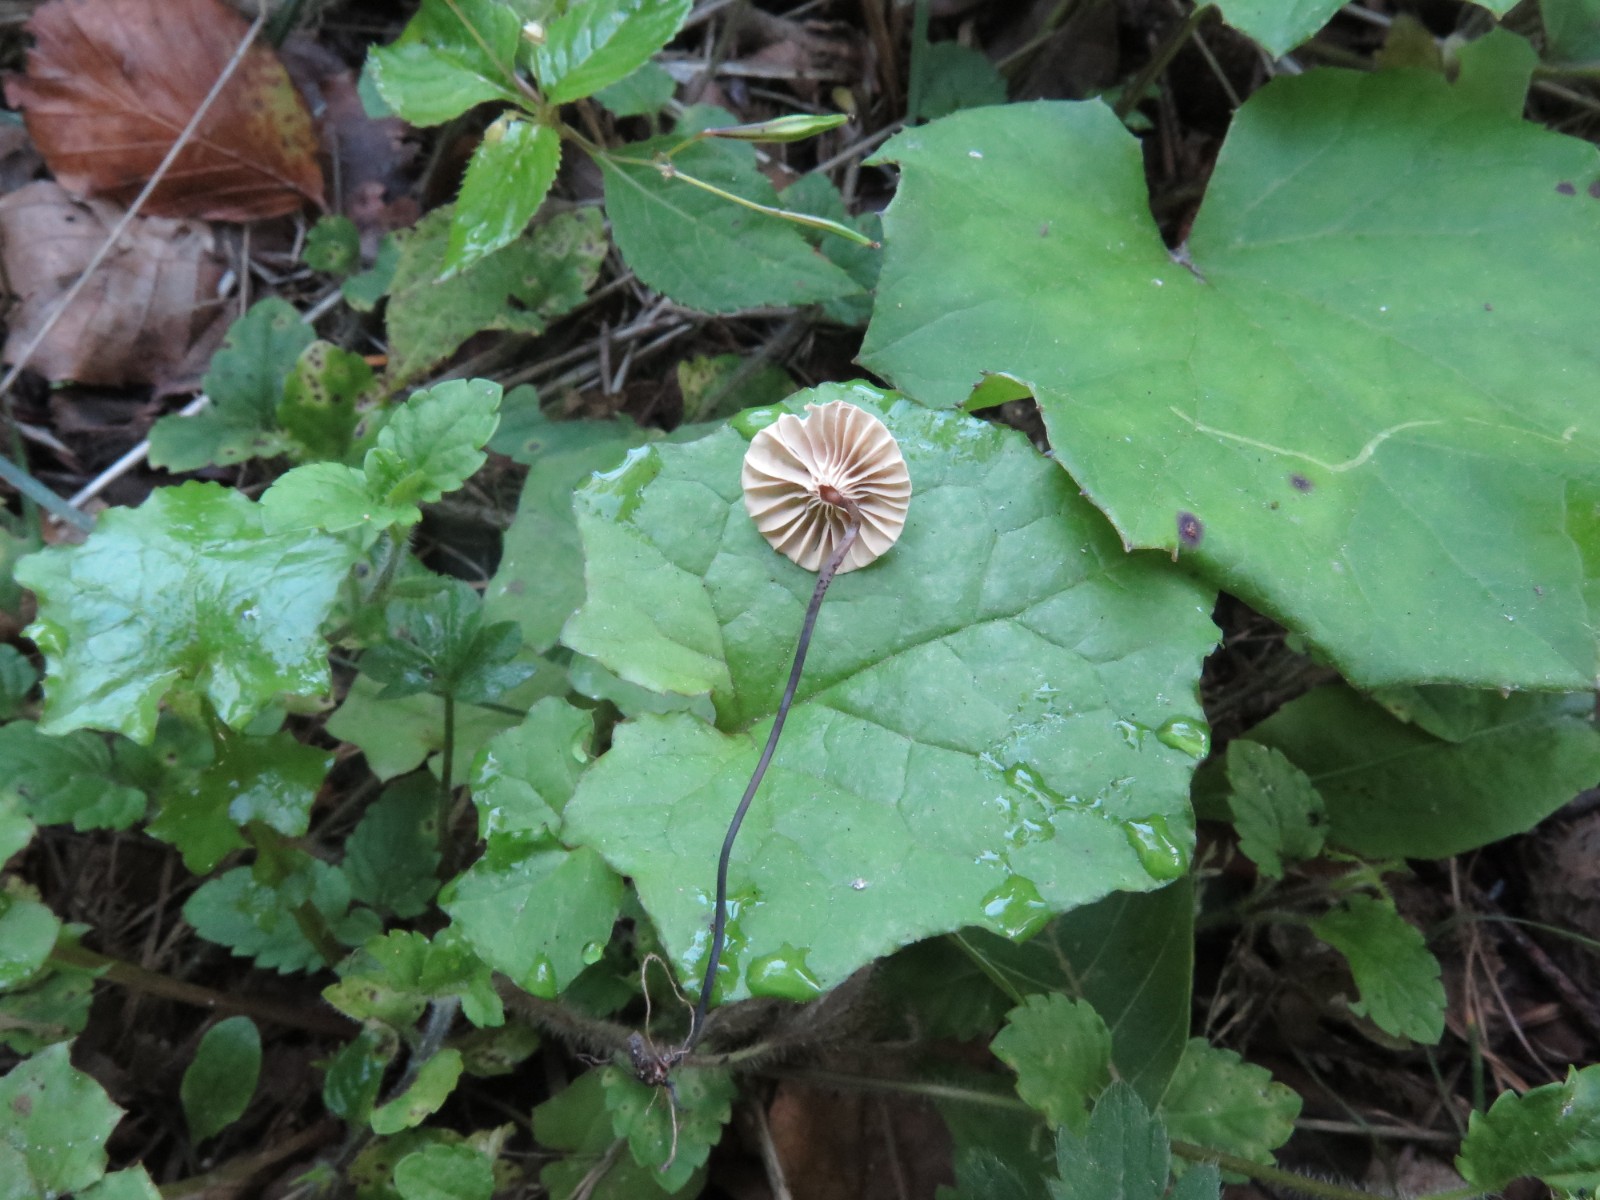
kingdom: Fungi
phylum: Basidiomycota
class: Agaricomycetes
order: Agaricales
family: Marasmiaceae
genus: Marasmius
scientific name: Marasmius rotula
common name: hjul-bruskhat
